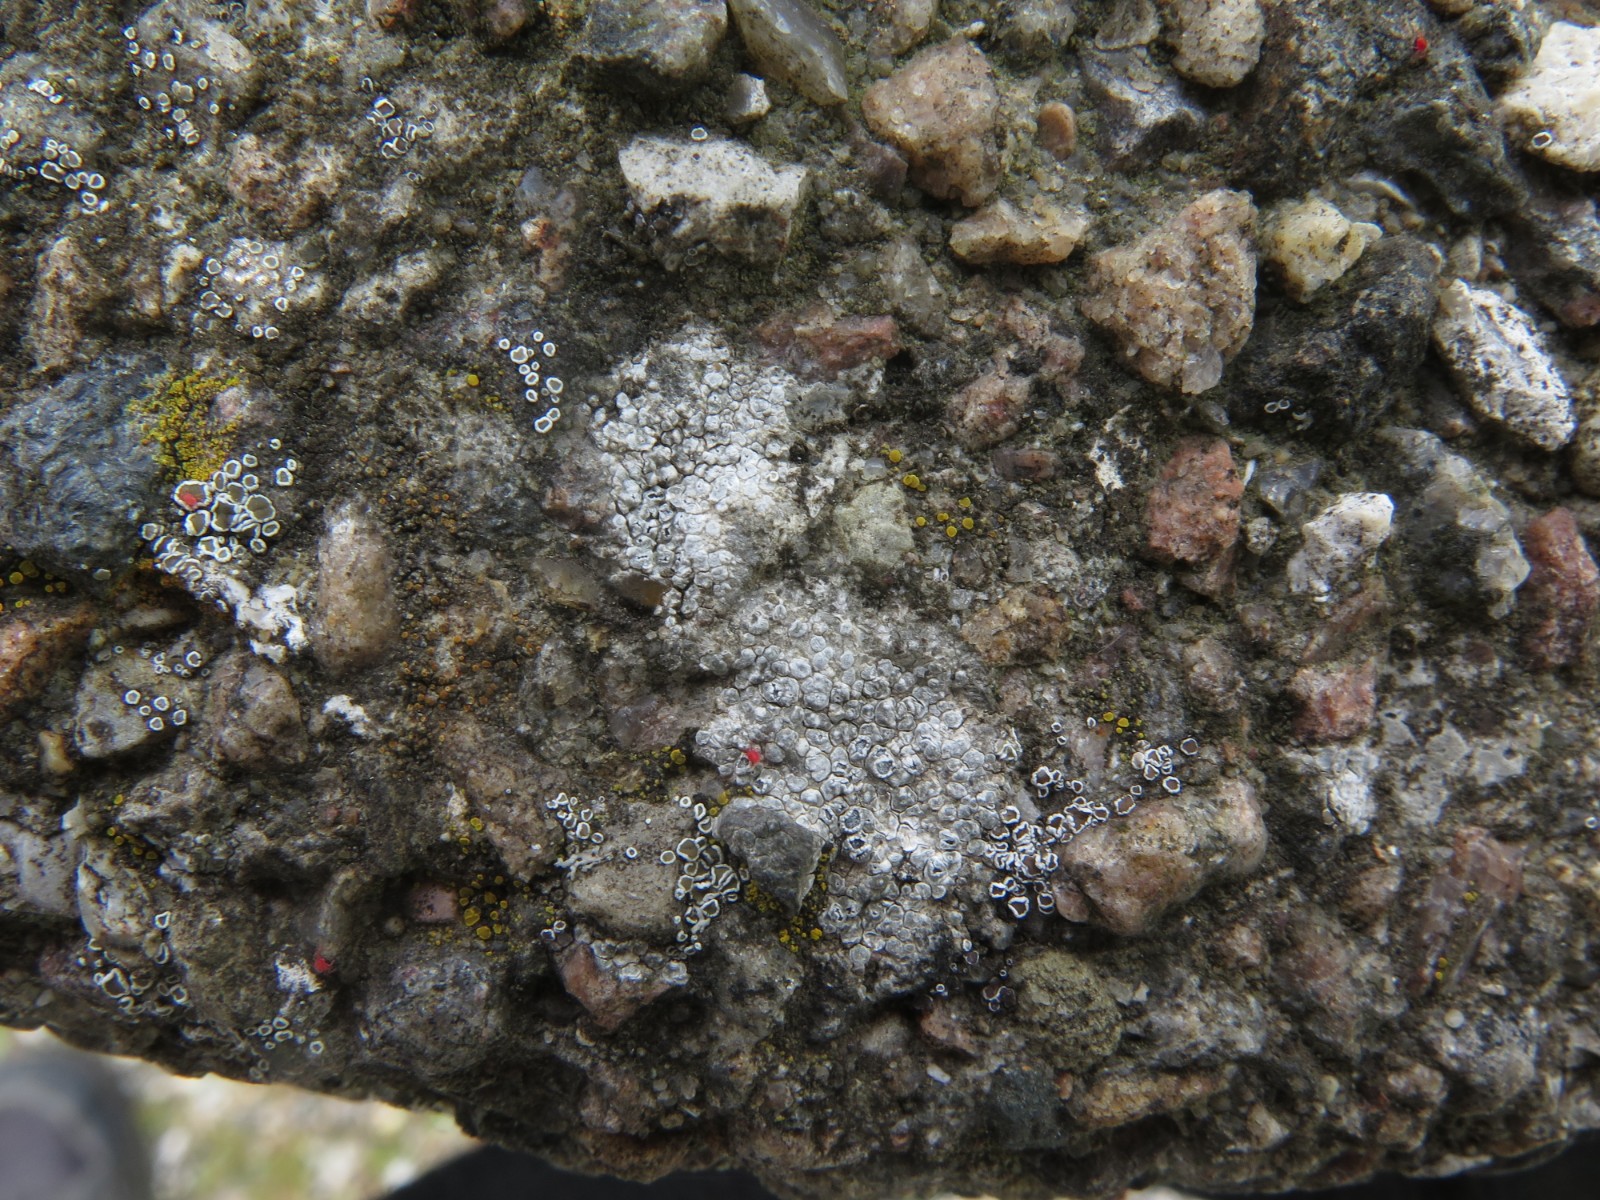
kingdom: Fungi
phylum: Ascomycota
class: Lecanoromycetes
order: Pertusariales
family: Megasporaceae
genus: Circinaria
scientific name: Circinaria contorta
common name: indviklet hulskivelav
